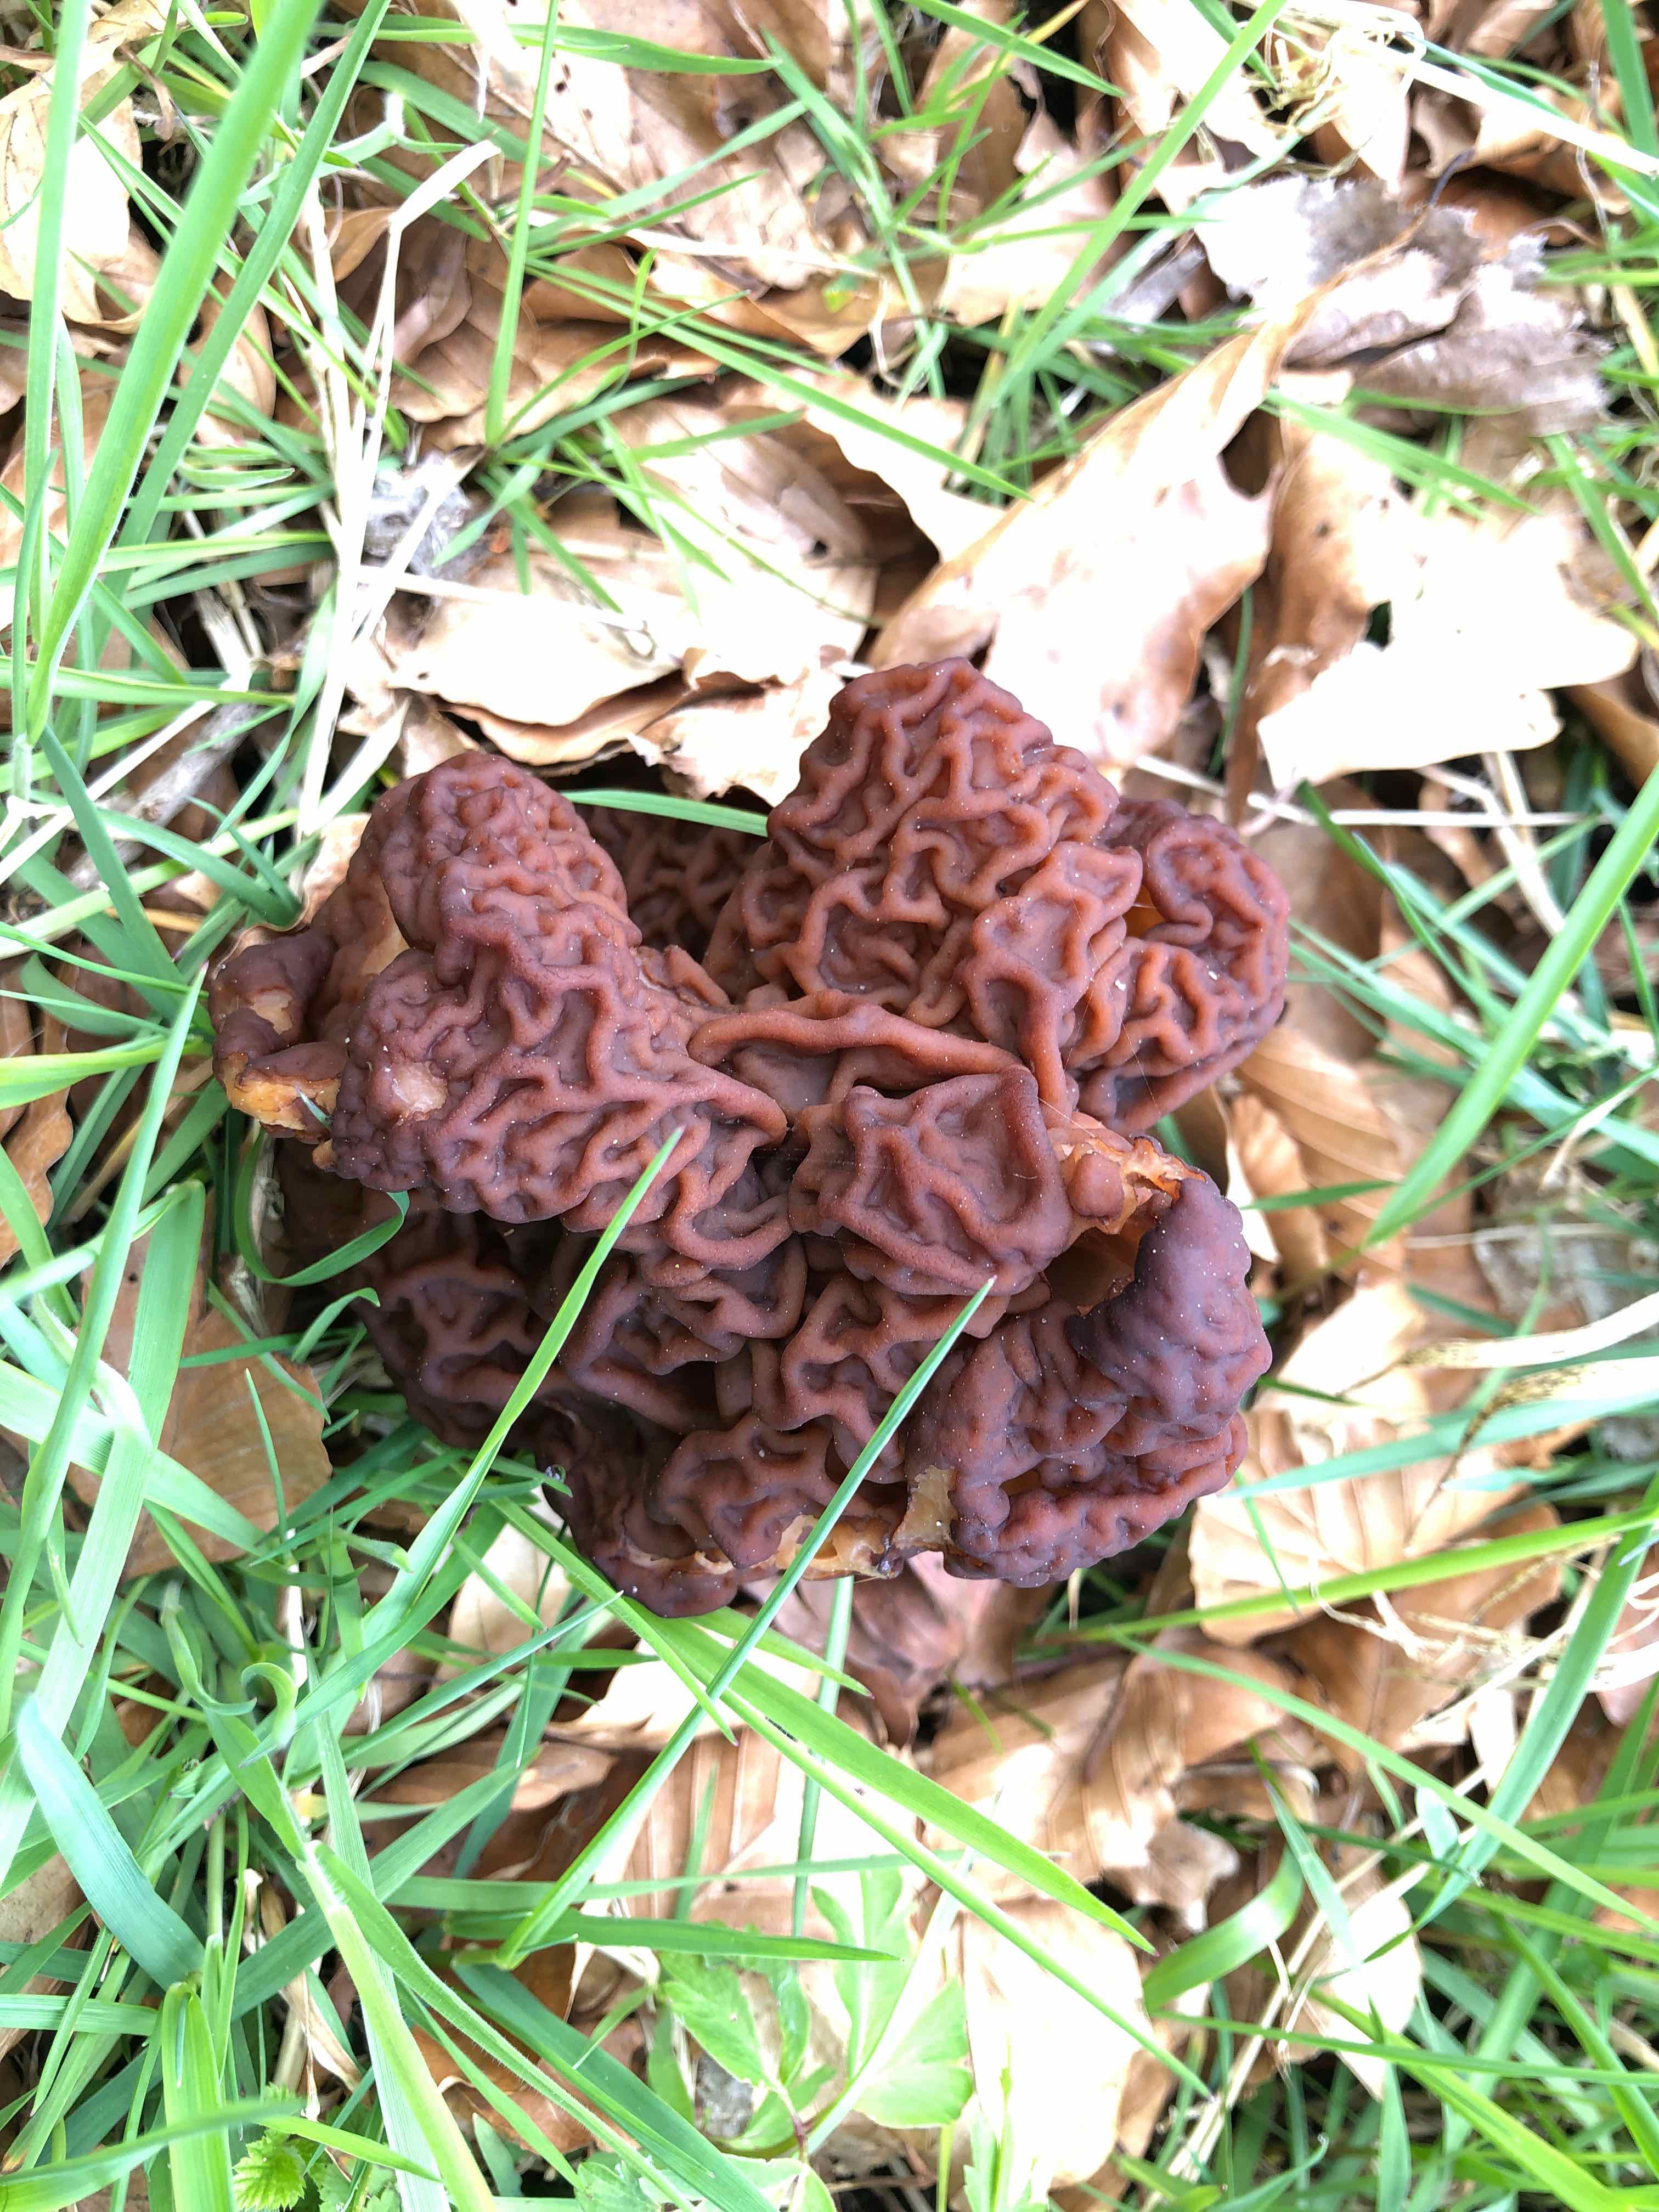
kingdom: Fungi
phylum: Ascomycota
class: Pezizomycetes
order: Pezizales
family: Discinaceae
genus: Gyromitra
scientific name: Gyromitra esculenta
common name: ægte stenmorkel
